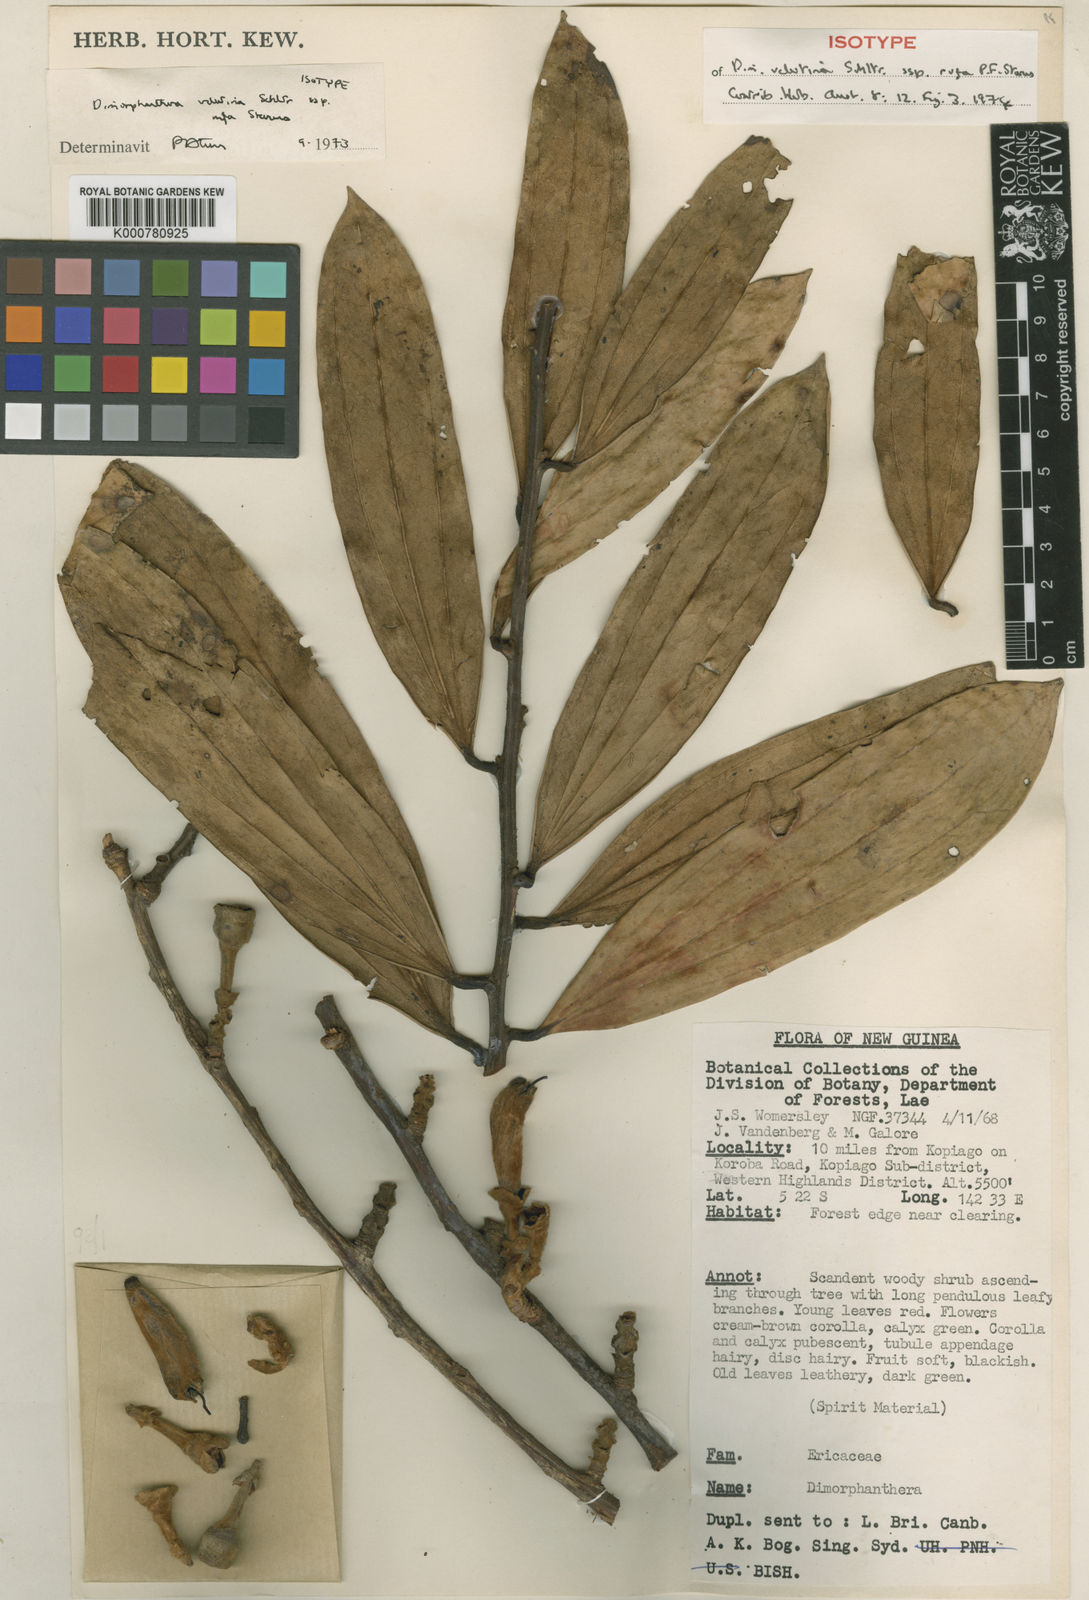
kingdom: Plantae
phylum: Tracheophyta
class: Magnoliopsida
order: Ericales
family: Ericaceae
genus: Dimorphanthera
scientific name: Dimorphanthera velutina
